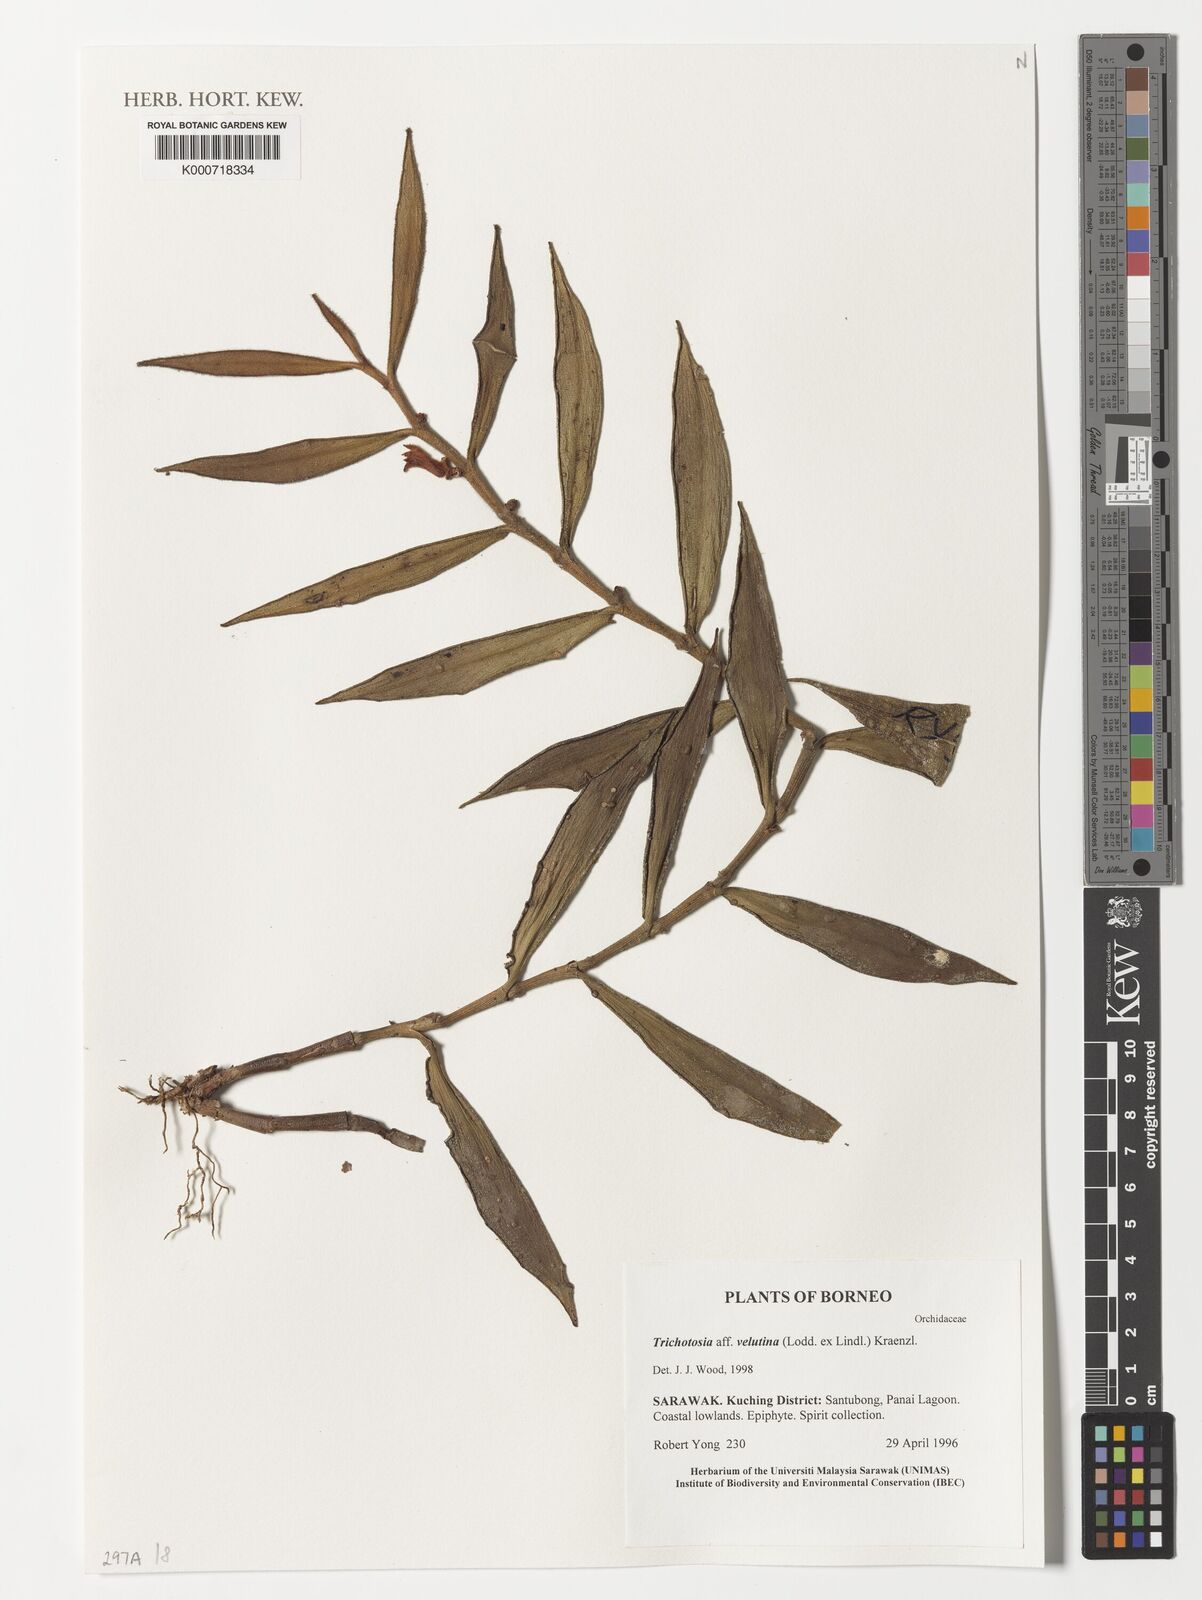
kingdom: Plantae
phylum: Tracheophyta
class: Liliopsida
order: Asparagales
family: Orchidaceae
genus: Trichotosia
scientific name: Trichotosia velutina
